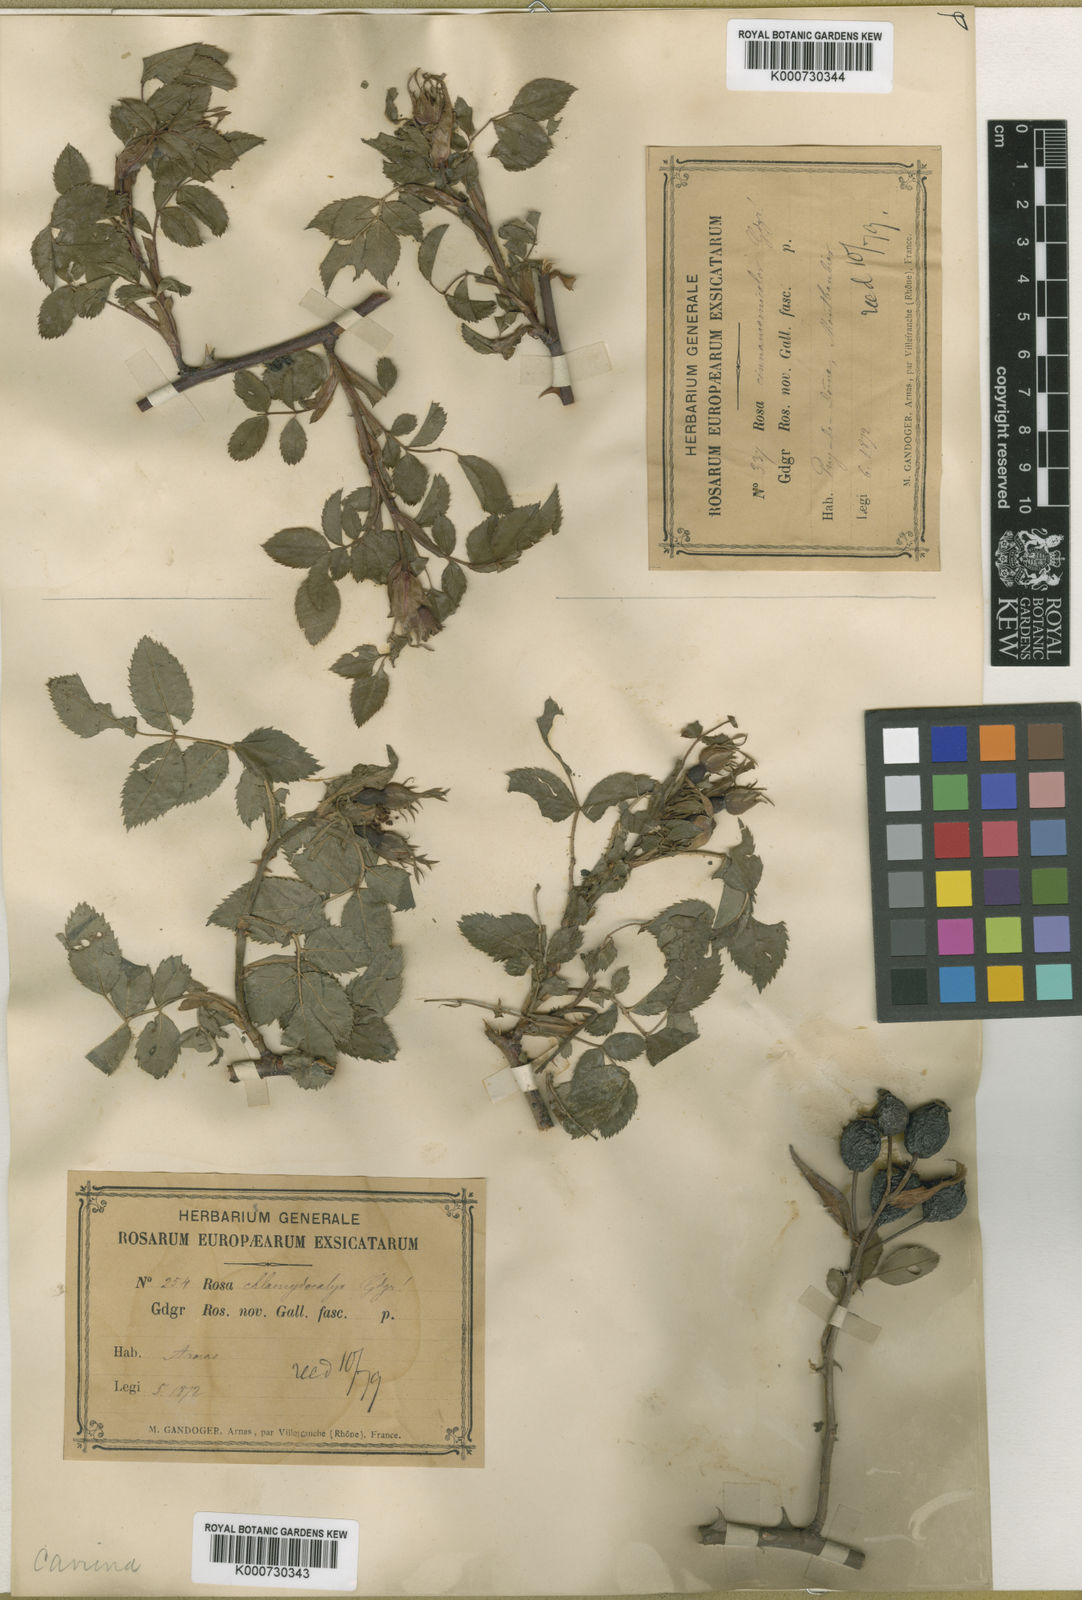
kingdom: Plantae
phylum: Tracheophyta
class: Magnoliopsida
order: Rosales
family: Rosaceae
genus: Rosa
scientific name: Rosa canina
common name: Dog rose
